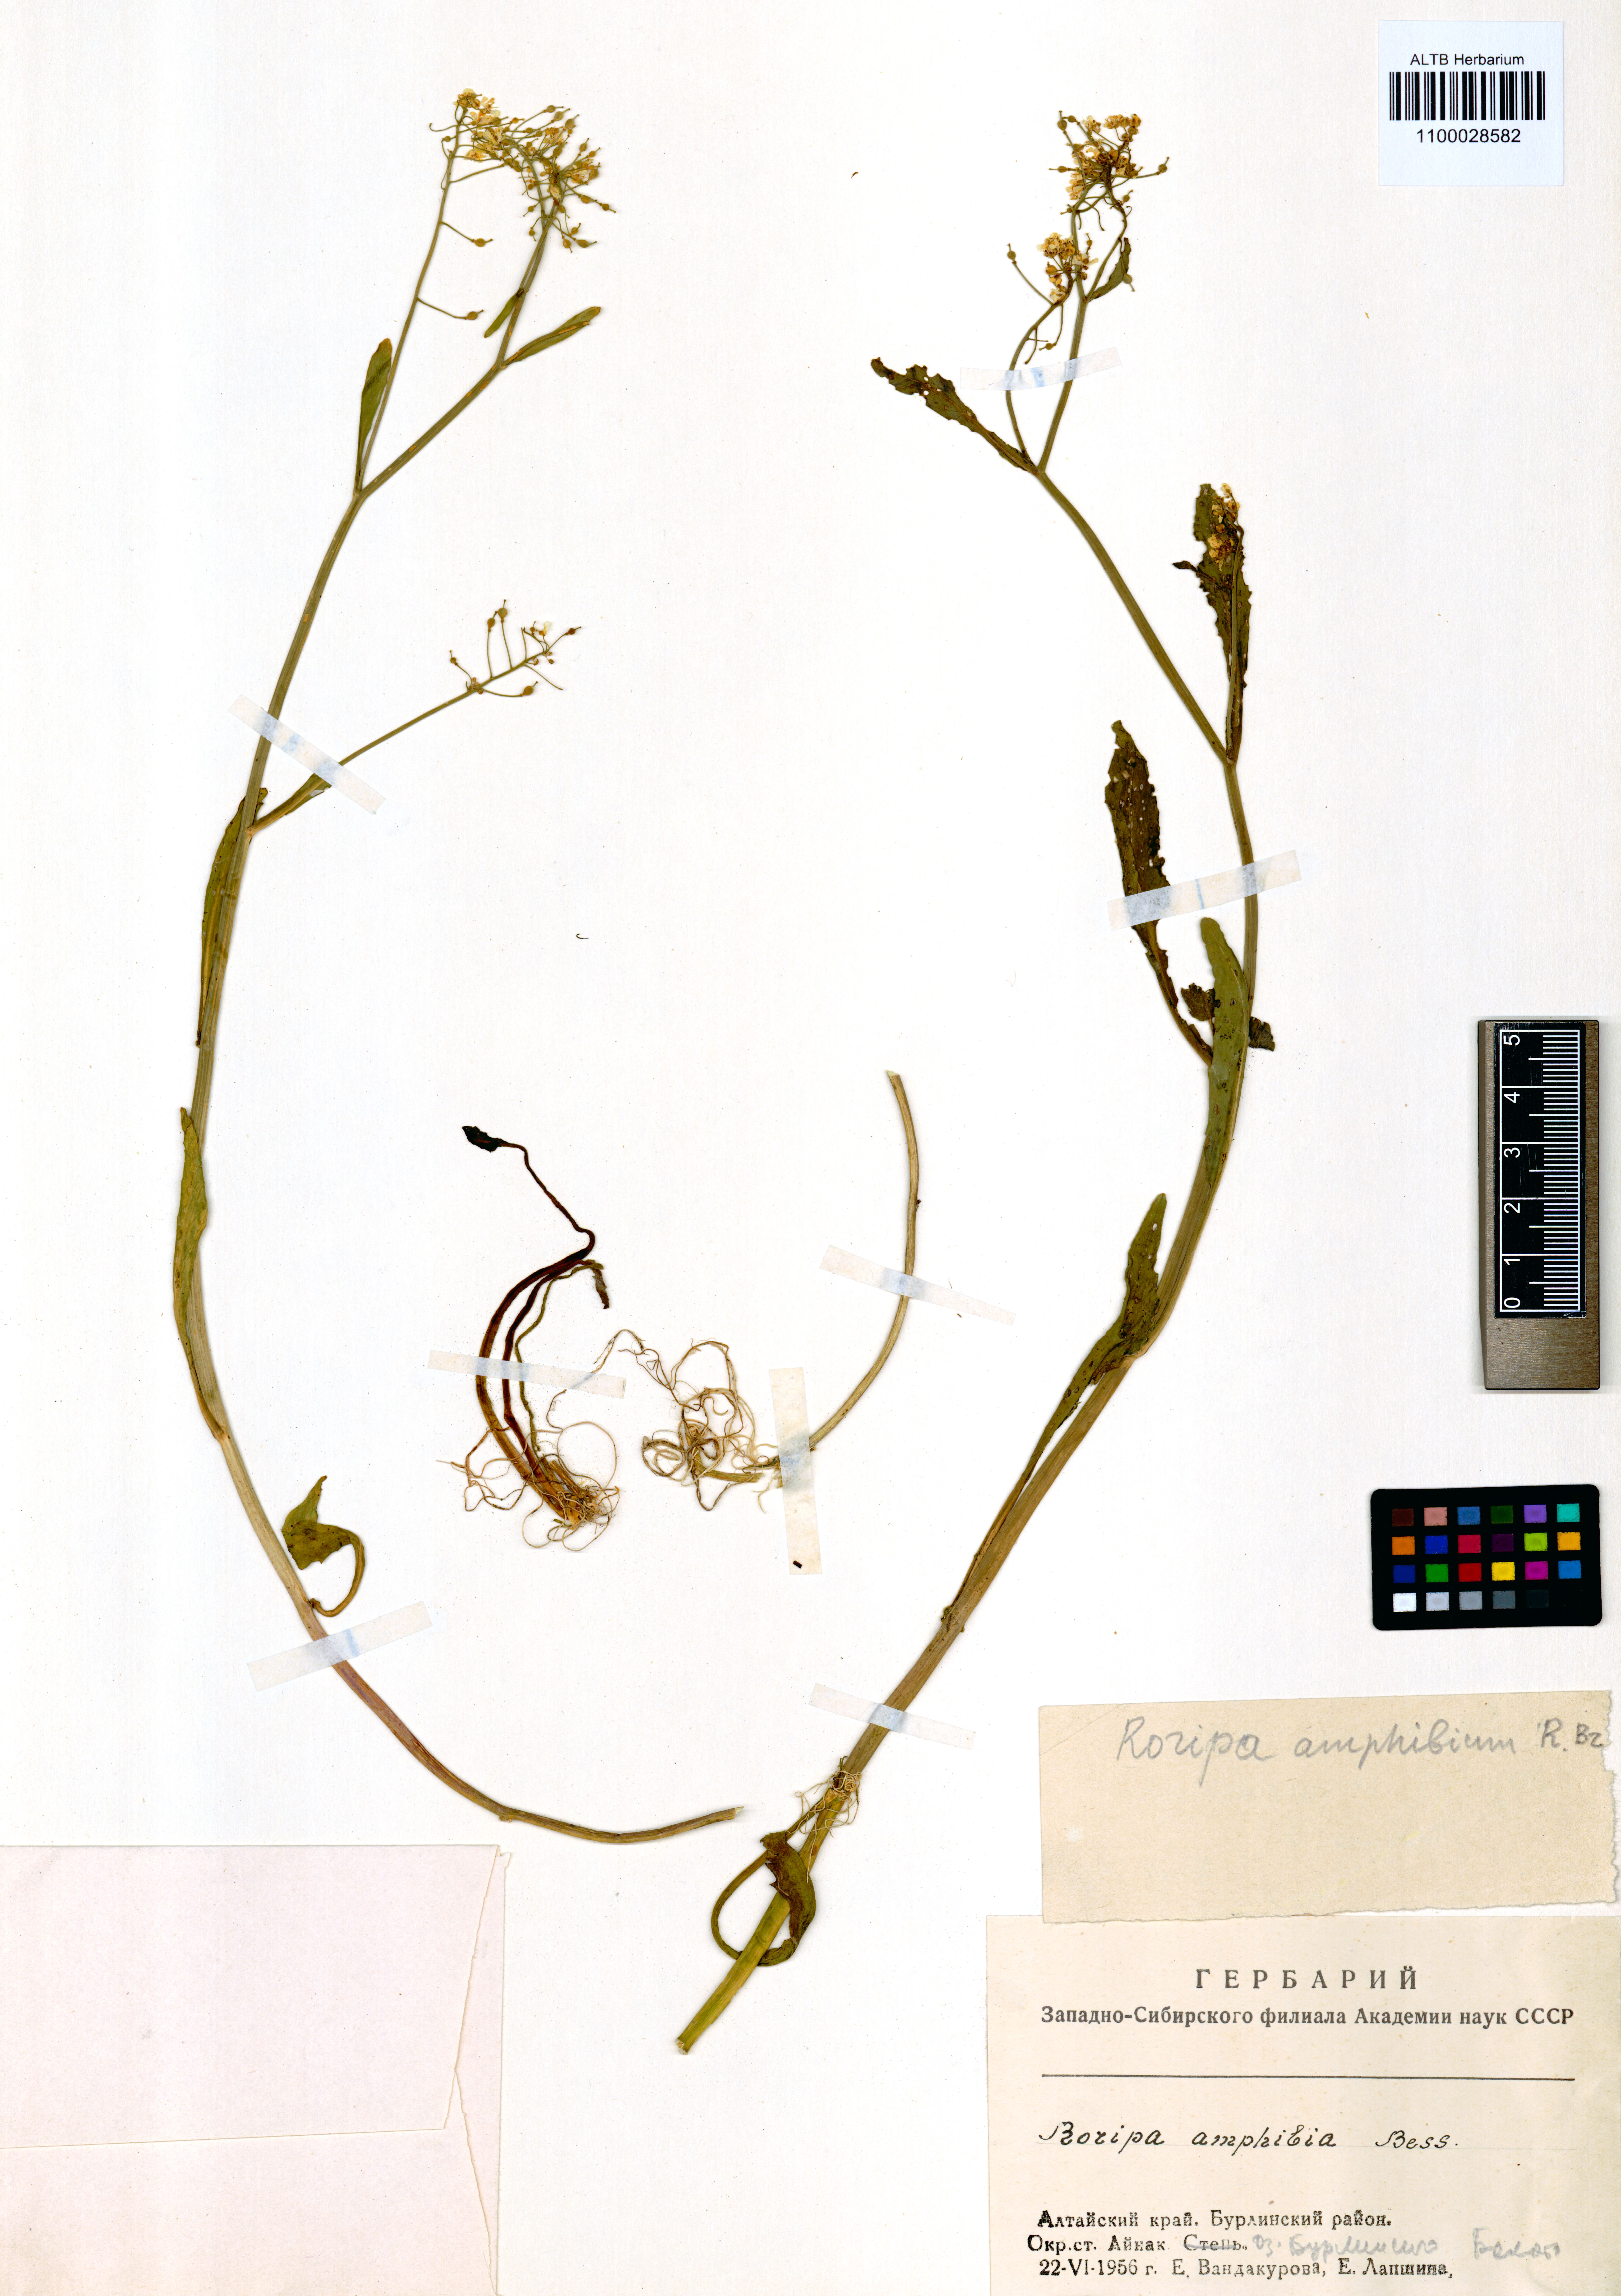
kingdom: Plantae
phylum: Tracheophyta
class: Magnoliopsida
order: Brassicales
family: Brassicaceae
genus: Rorippa
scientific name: Rorippa amphibia
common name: Great yellow-cress
